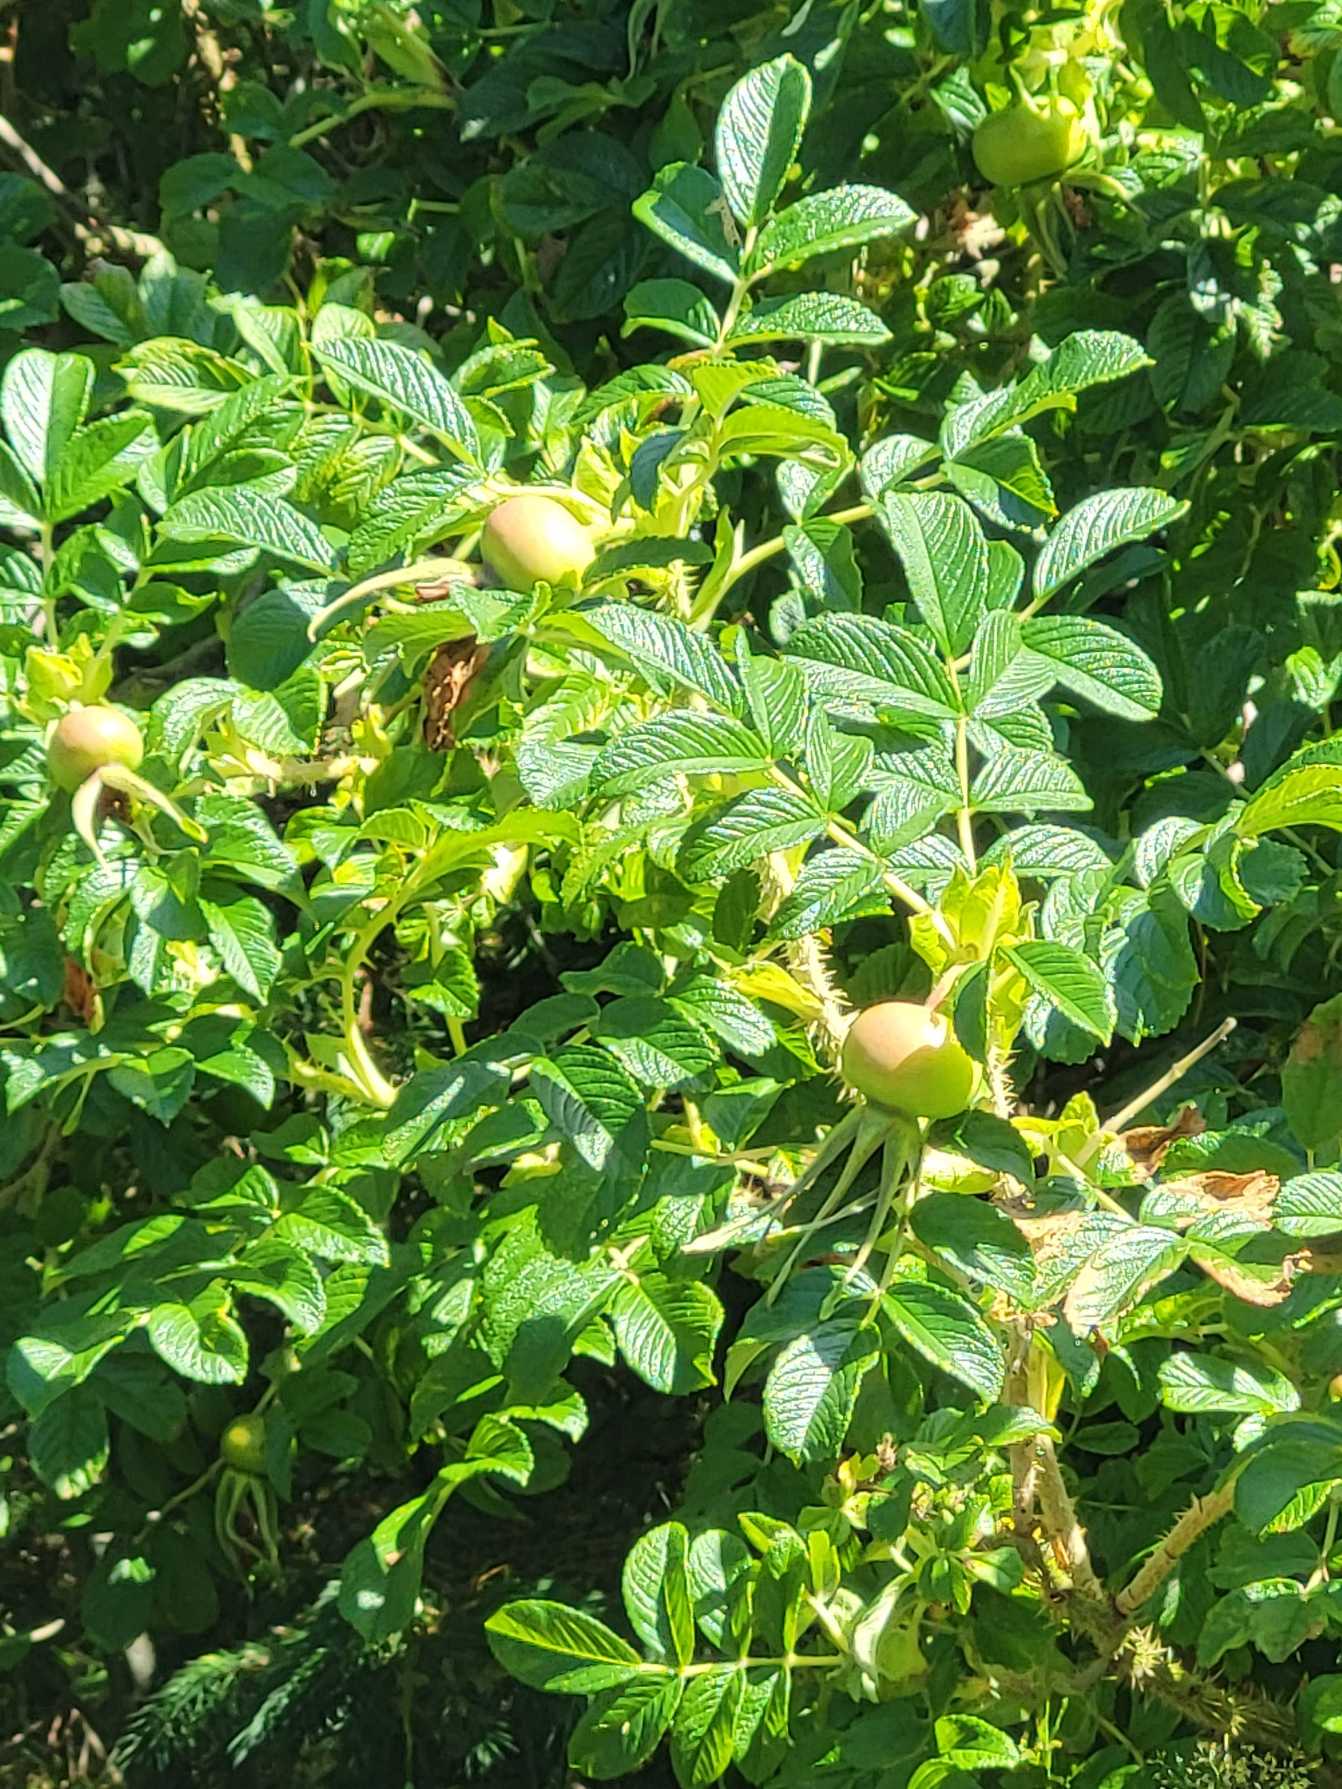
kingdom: Plantae
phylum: Tracheophyta
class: Magnoliopsida
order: Rosales
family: Rosaceae
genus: Rosa
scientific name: Rosa rugosa
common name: Rynket rose
